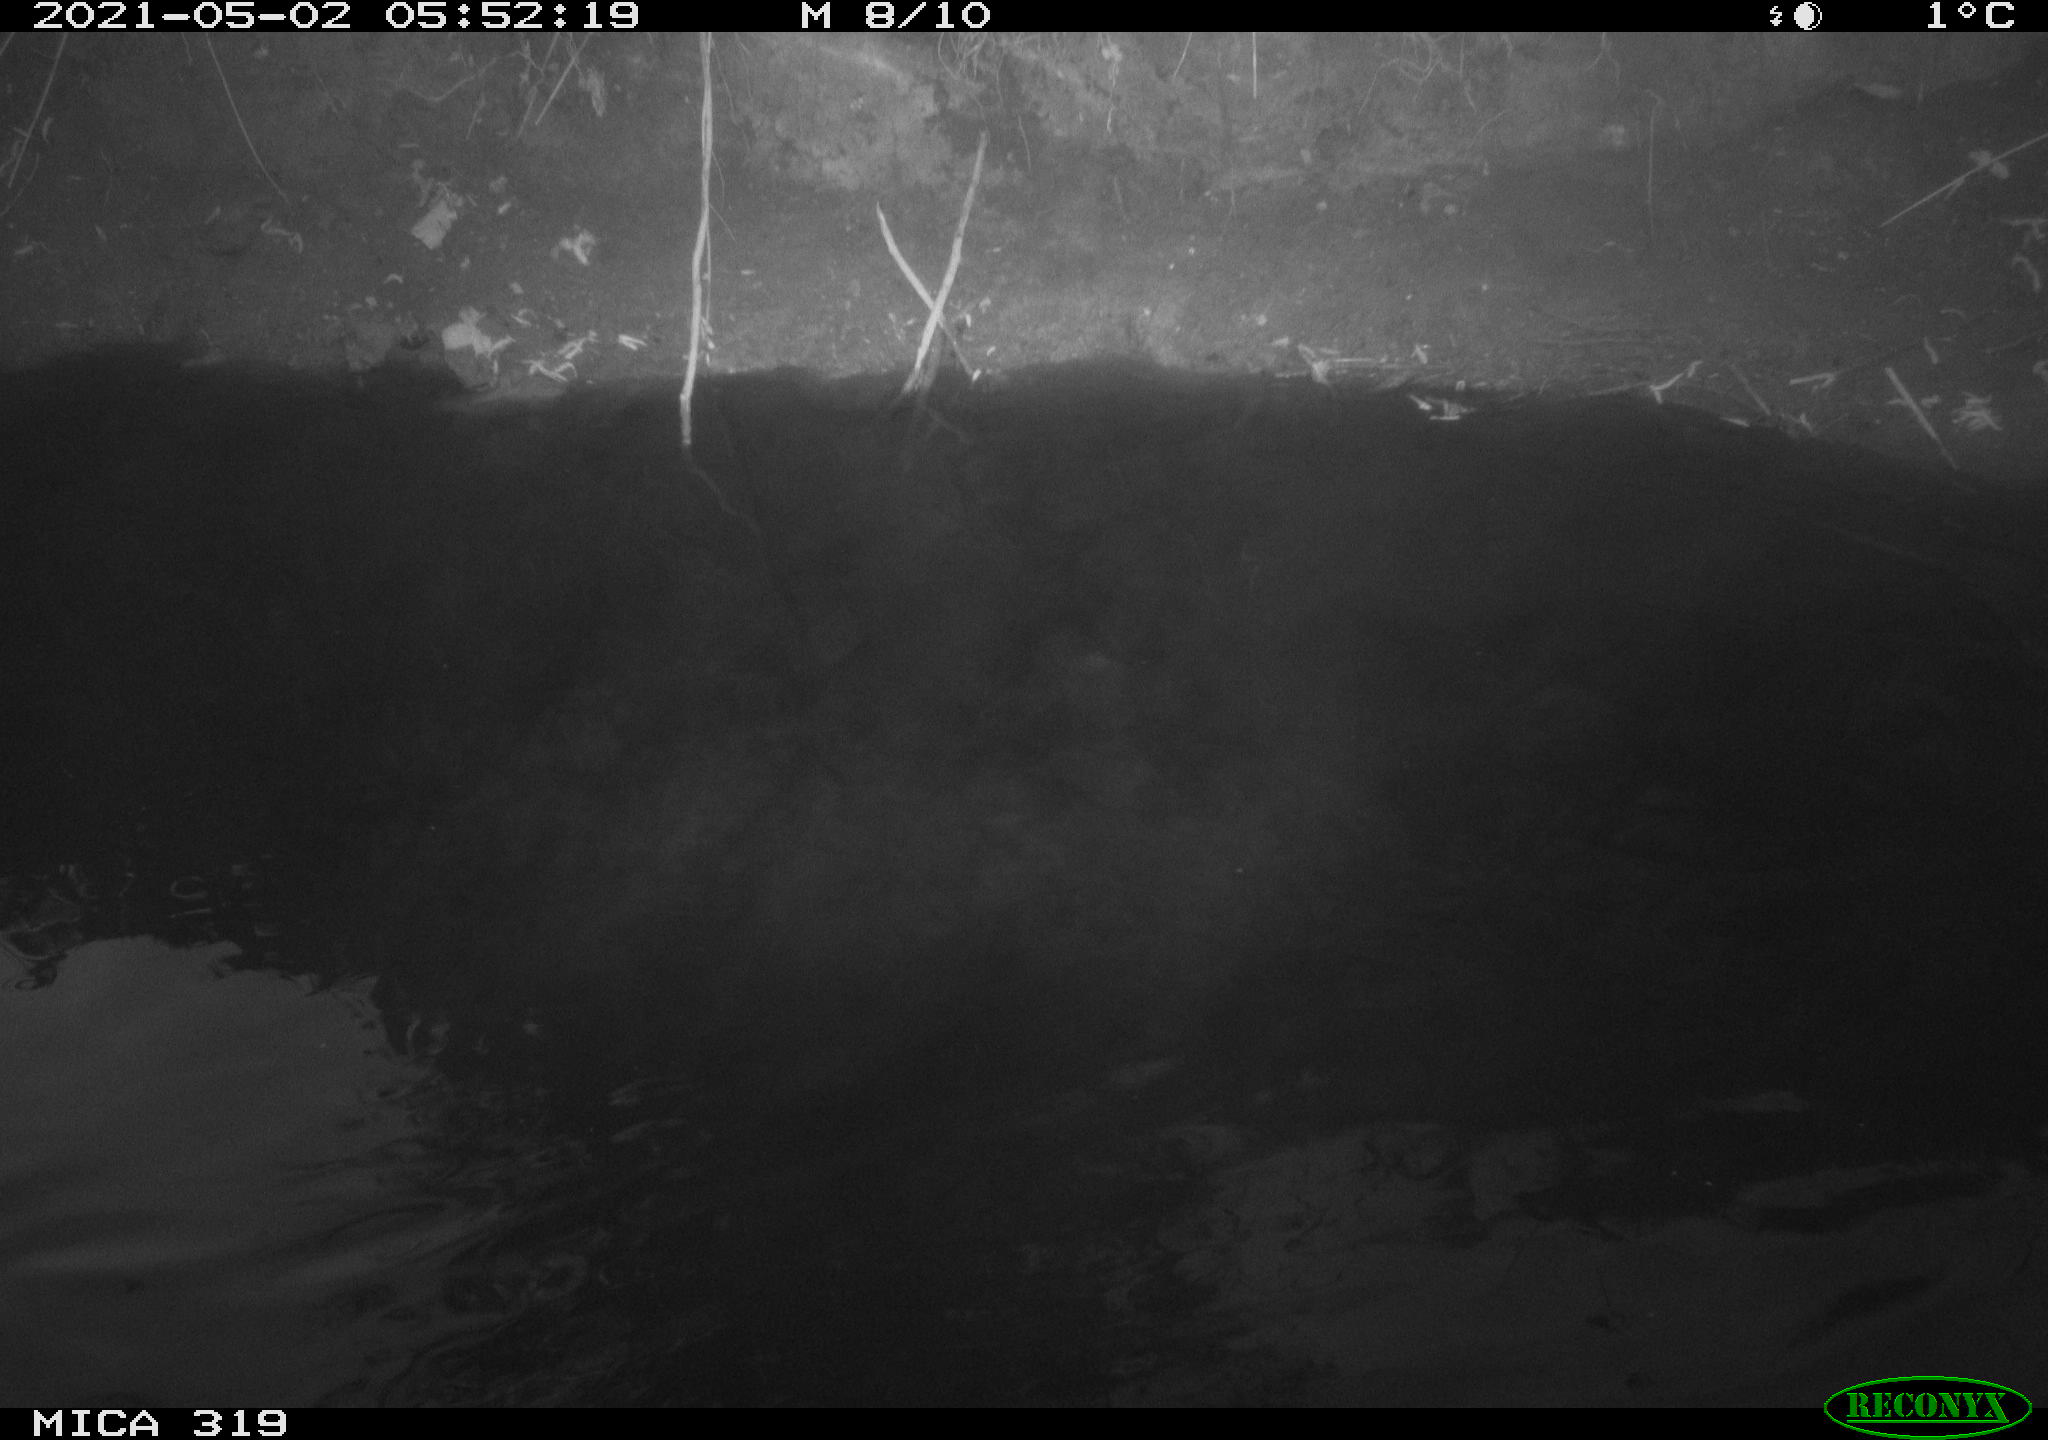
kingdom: Animalia
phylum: Chordata
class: Aves
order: Anseriformes
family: Anatidae
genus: Anas
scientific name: Anas platyrhynchos
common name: Mallard
